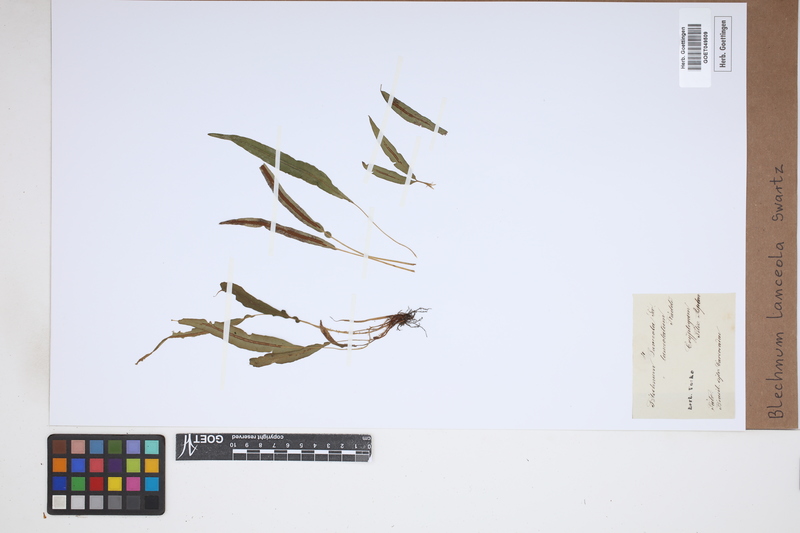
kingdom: Plantae
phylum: Tracheophyta
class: Polypodiopsida
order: Polypodiales
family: Blechnaceae
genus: Blechnum
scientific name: Blechnum lanceola
